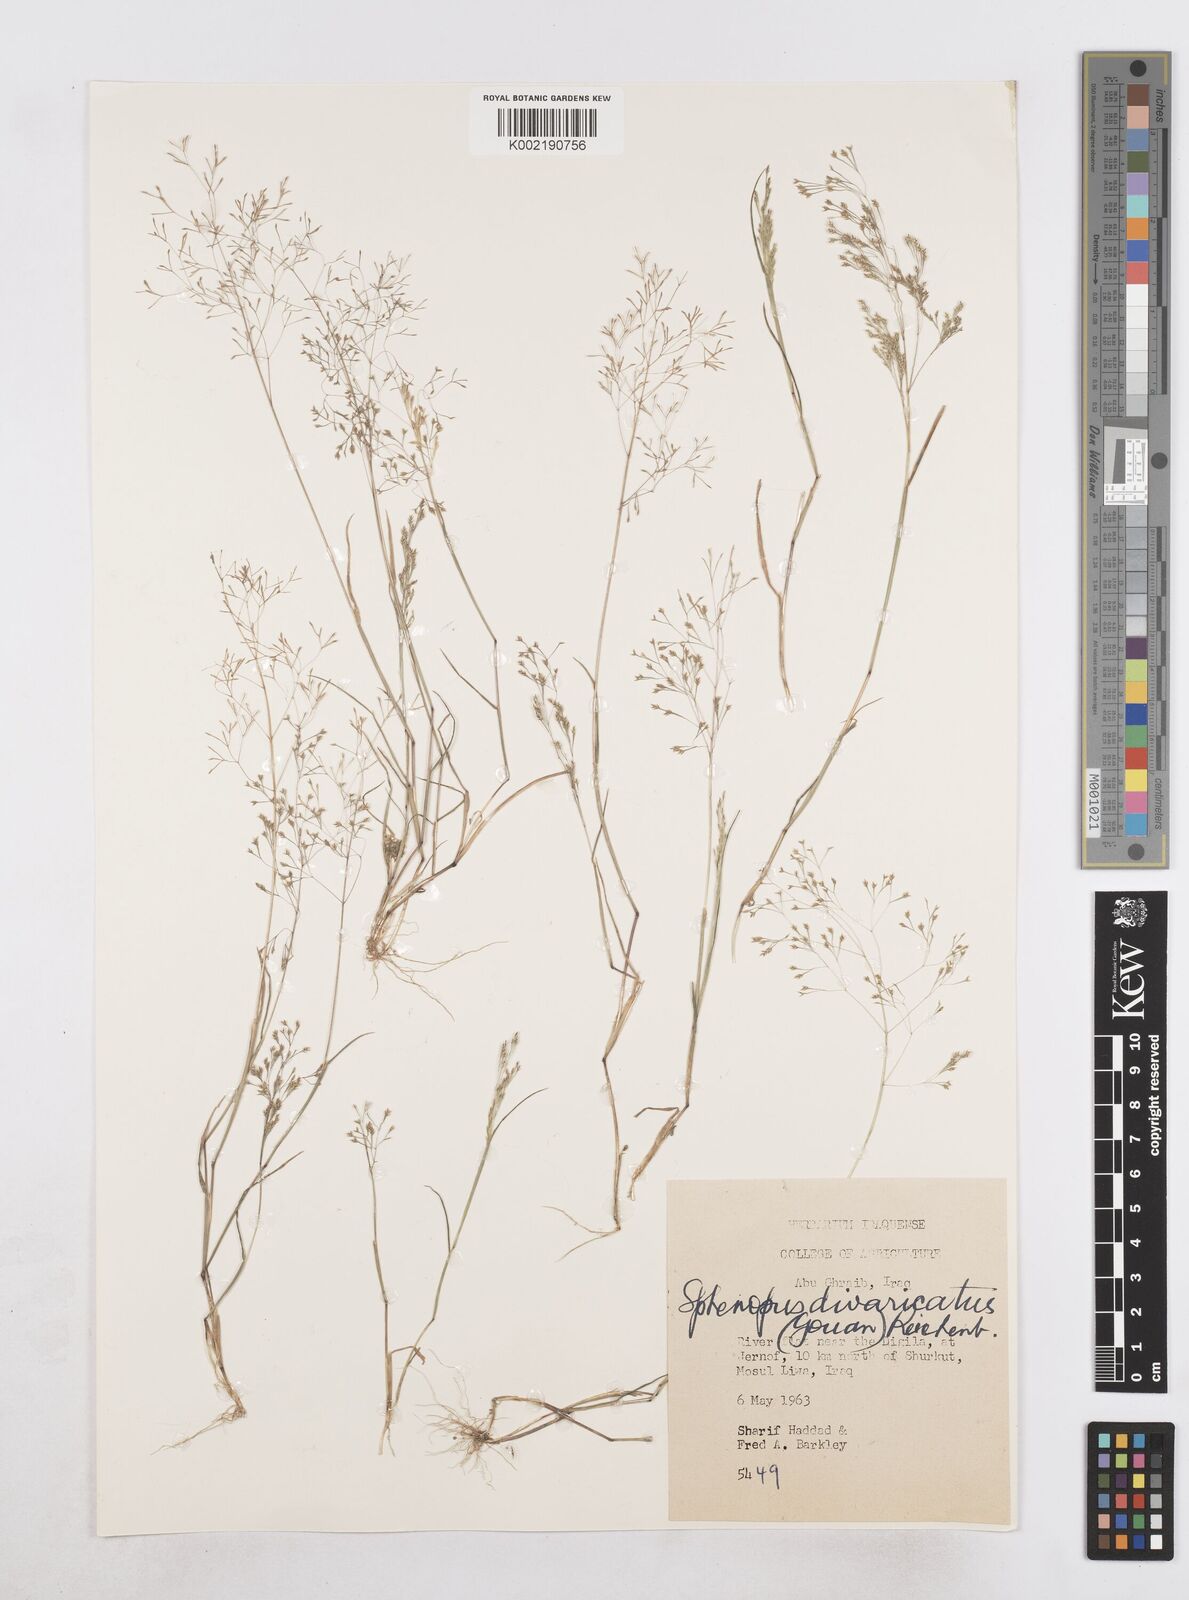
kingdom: Plantae
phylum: Tracheophyta
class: Liliopsida
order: Poales
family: Poaceae
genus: Sphenopus
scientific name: Sphenopus divaricatus
